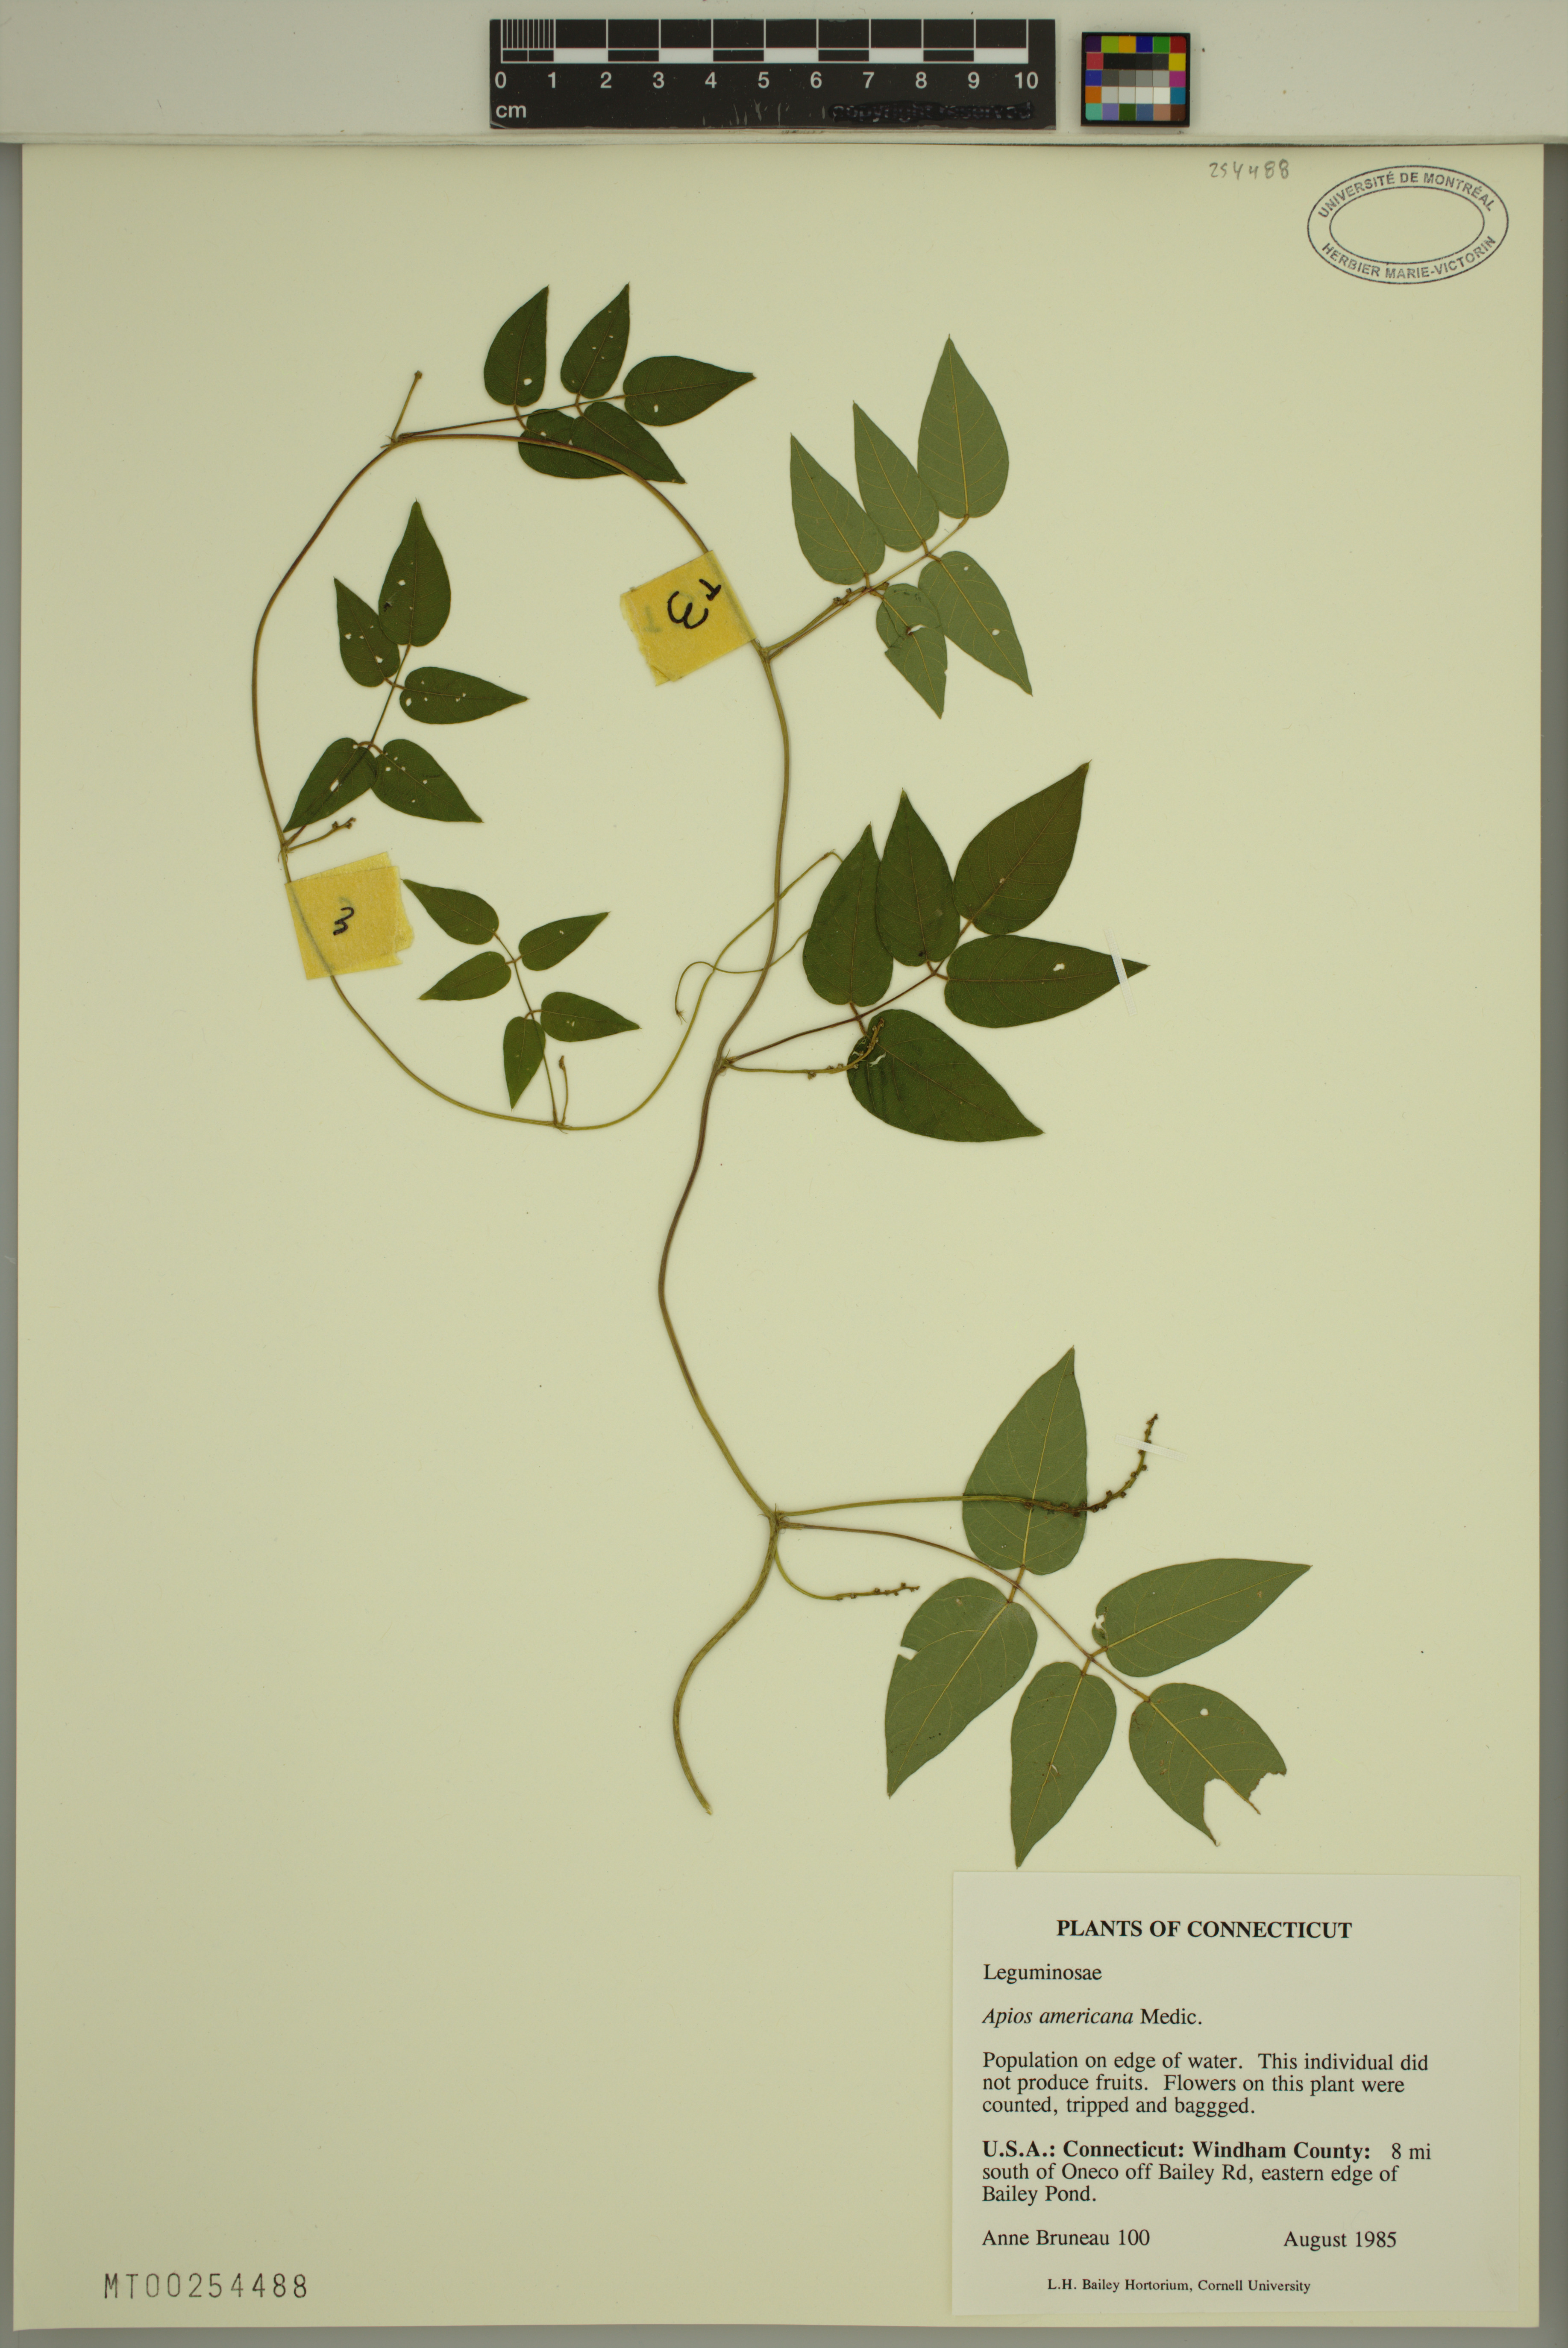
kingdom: Plantae
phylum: Tracheophyta
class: Magnoliopsida
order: Fabales
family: Fabaceae
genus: Apios
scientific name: Apios americana
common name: American potato-bean
